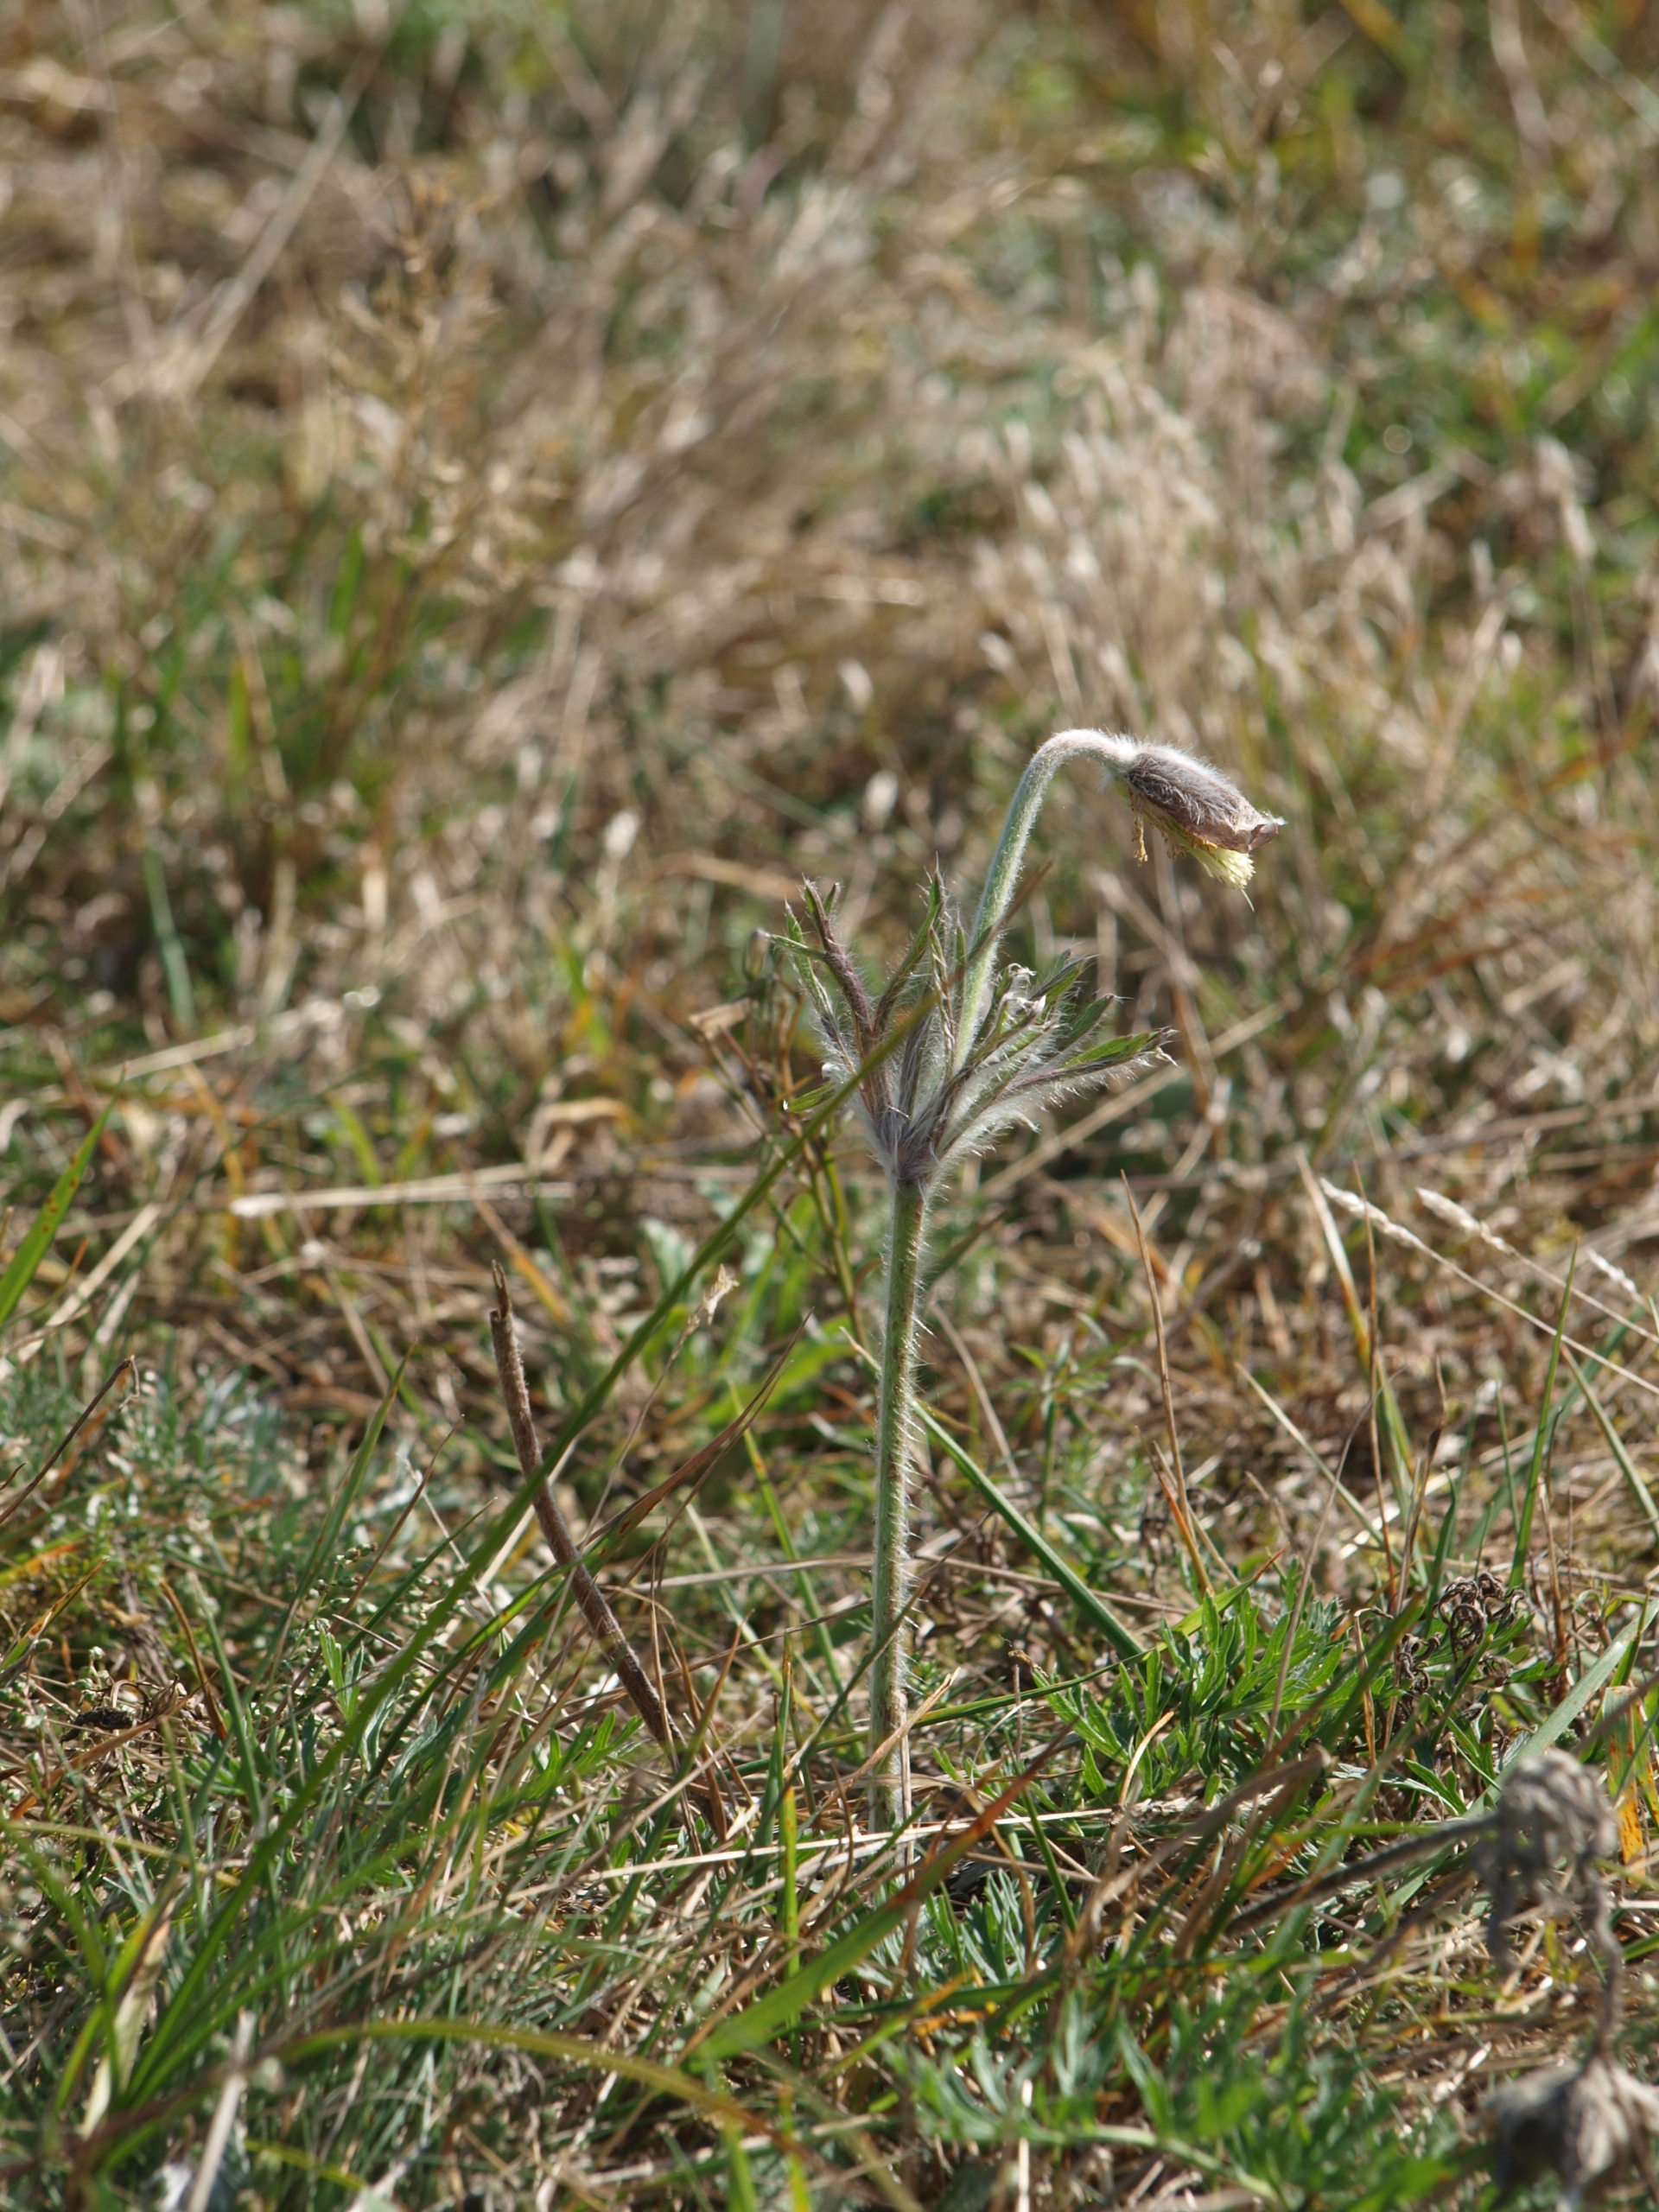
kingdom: Plantae
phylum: Tracheophyta
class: Magnoliopsida
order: Ranunculales
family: Ranunculaceae
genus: Pulsatilla
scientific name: Pulsatilla pratensis
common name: Nikkende kobjælde
